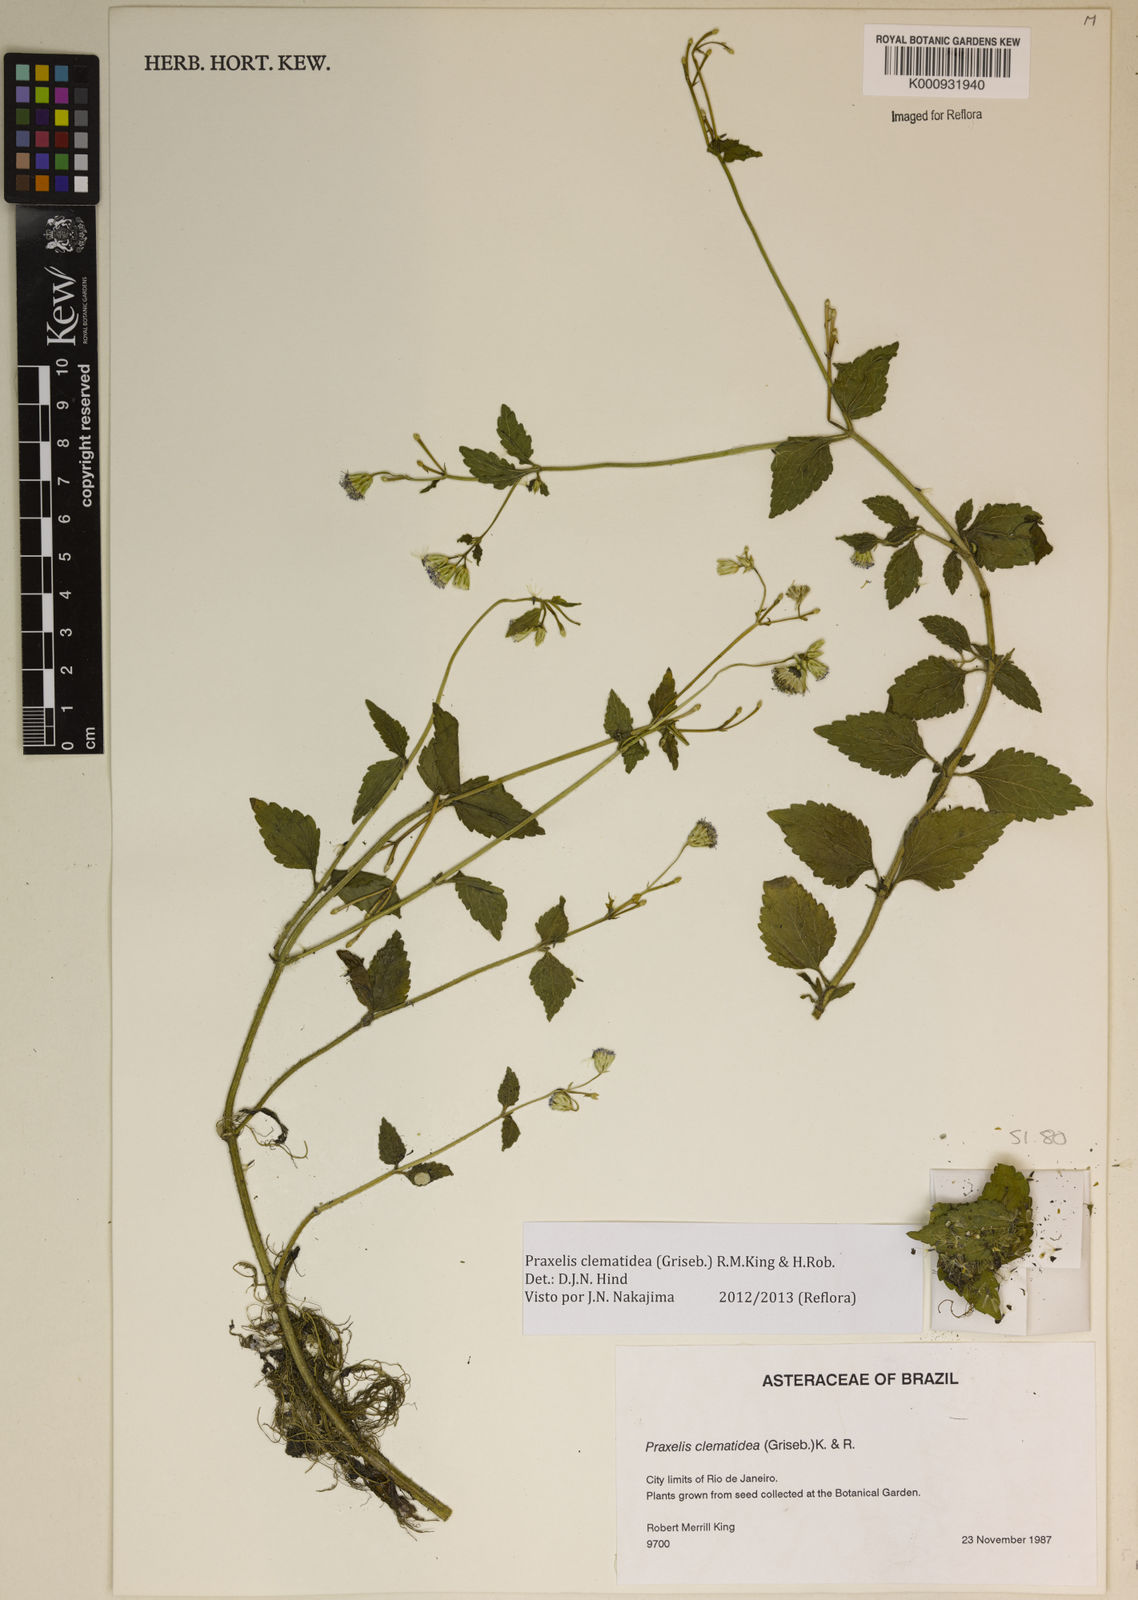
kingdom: Plantae
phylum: Tracheophyta
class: Magnoliopsida
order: Asterales
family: Asteraceae
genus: Praxelis
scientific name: Praxelis clematidea
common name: Praxelis
